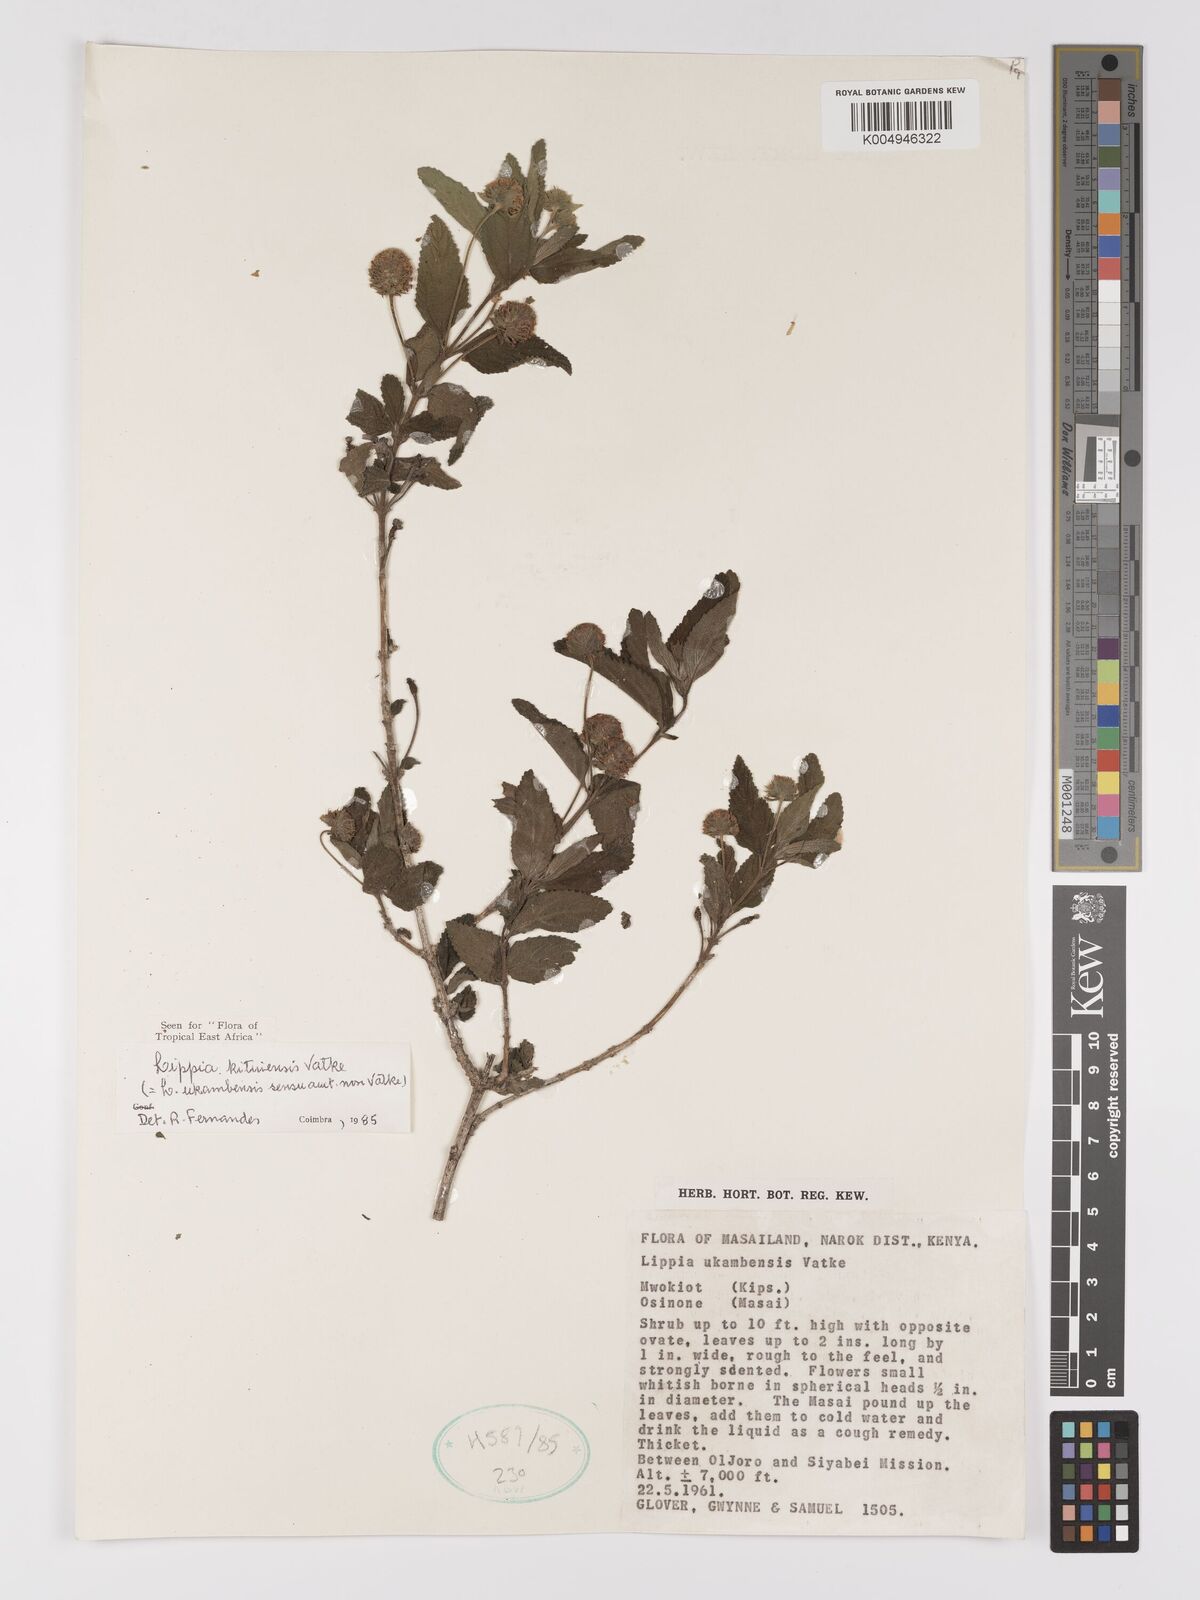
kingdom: Plantae
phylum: Tracheophyta
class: Magnoliopsida
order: Lamiales
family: Verbenaceae
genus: Lantana
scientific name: Lantana ukambensis
